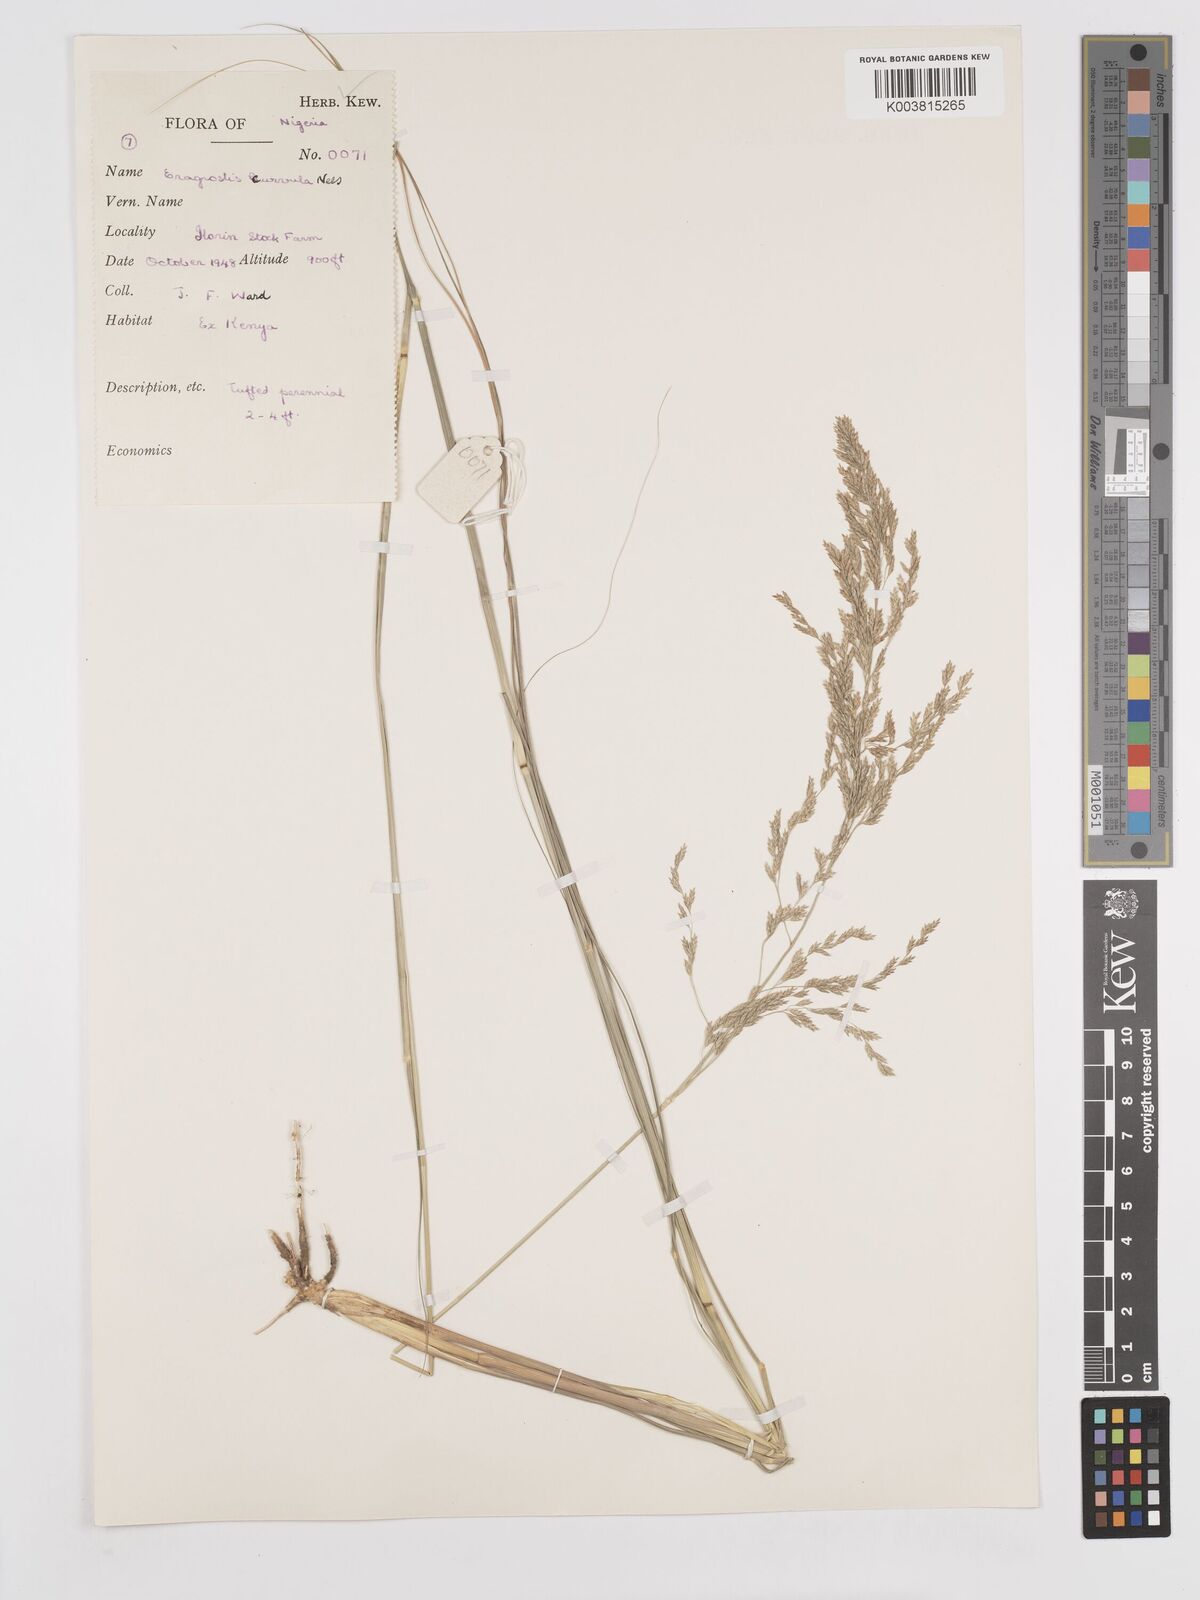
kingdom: Plantae
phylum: Tracheophyta
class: Liliopsida
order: Poales
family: Poaceae
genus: Eragrostis
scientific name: Eragrostis curvula
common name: African love-grass
